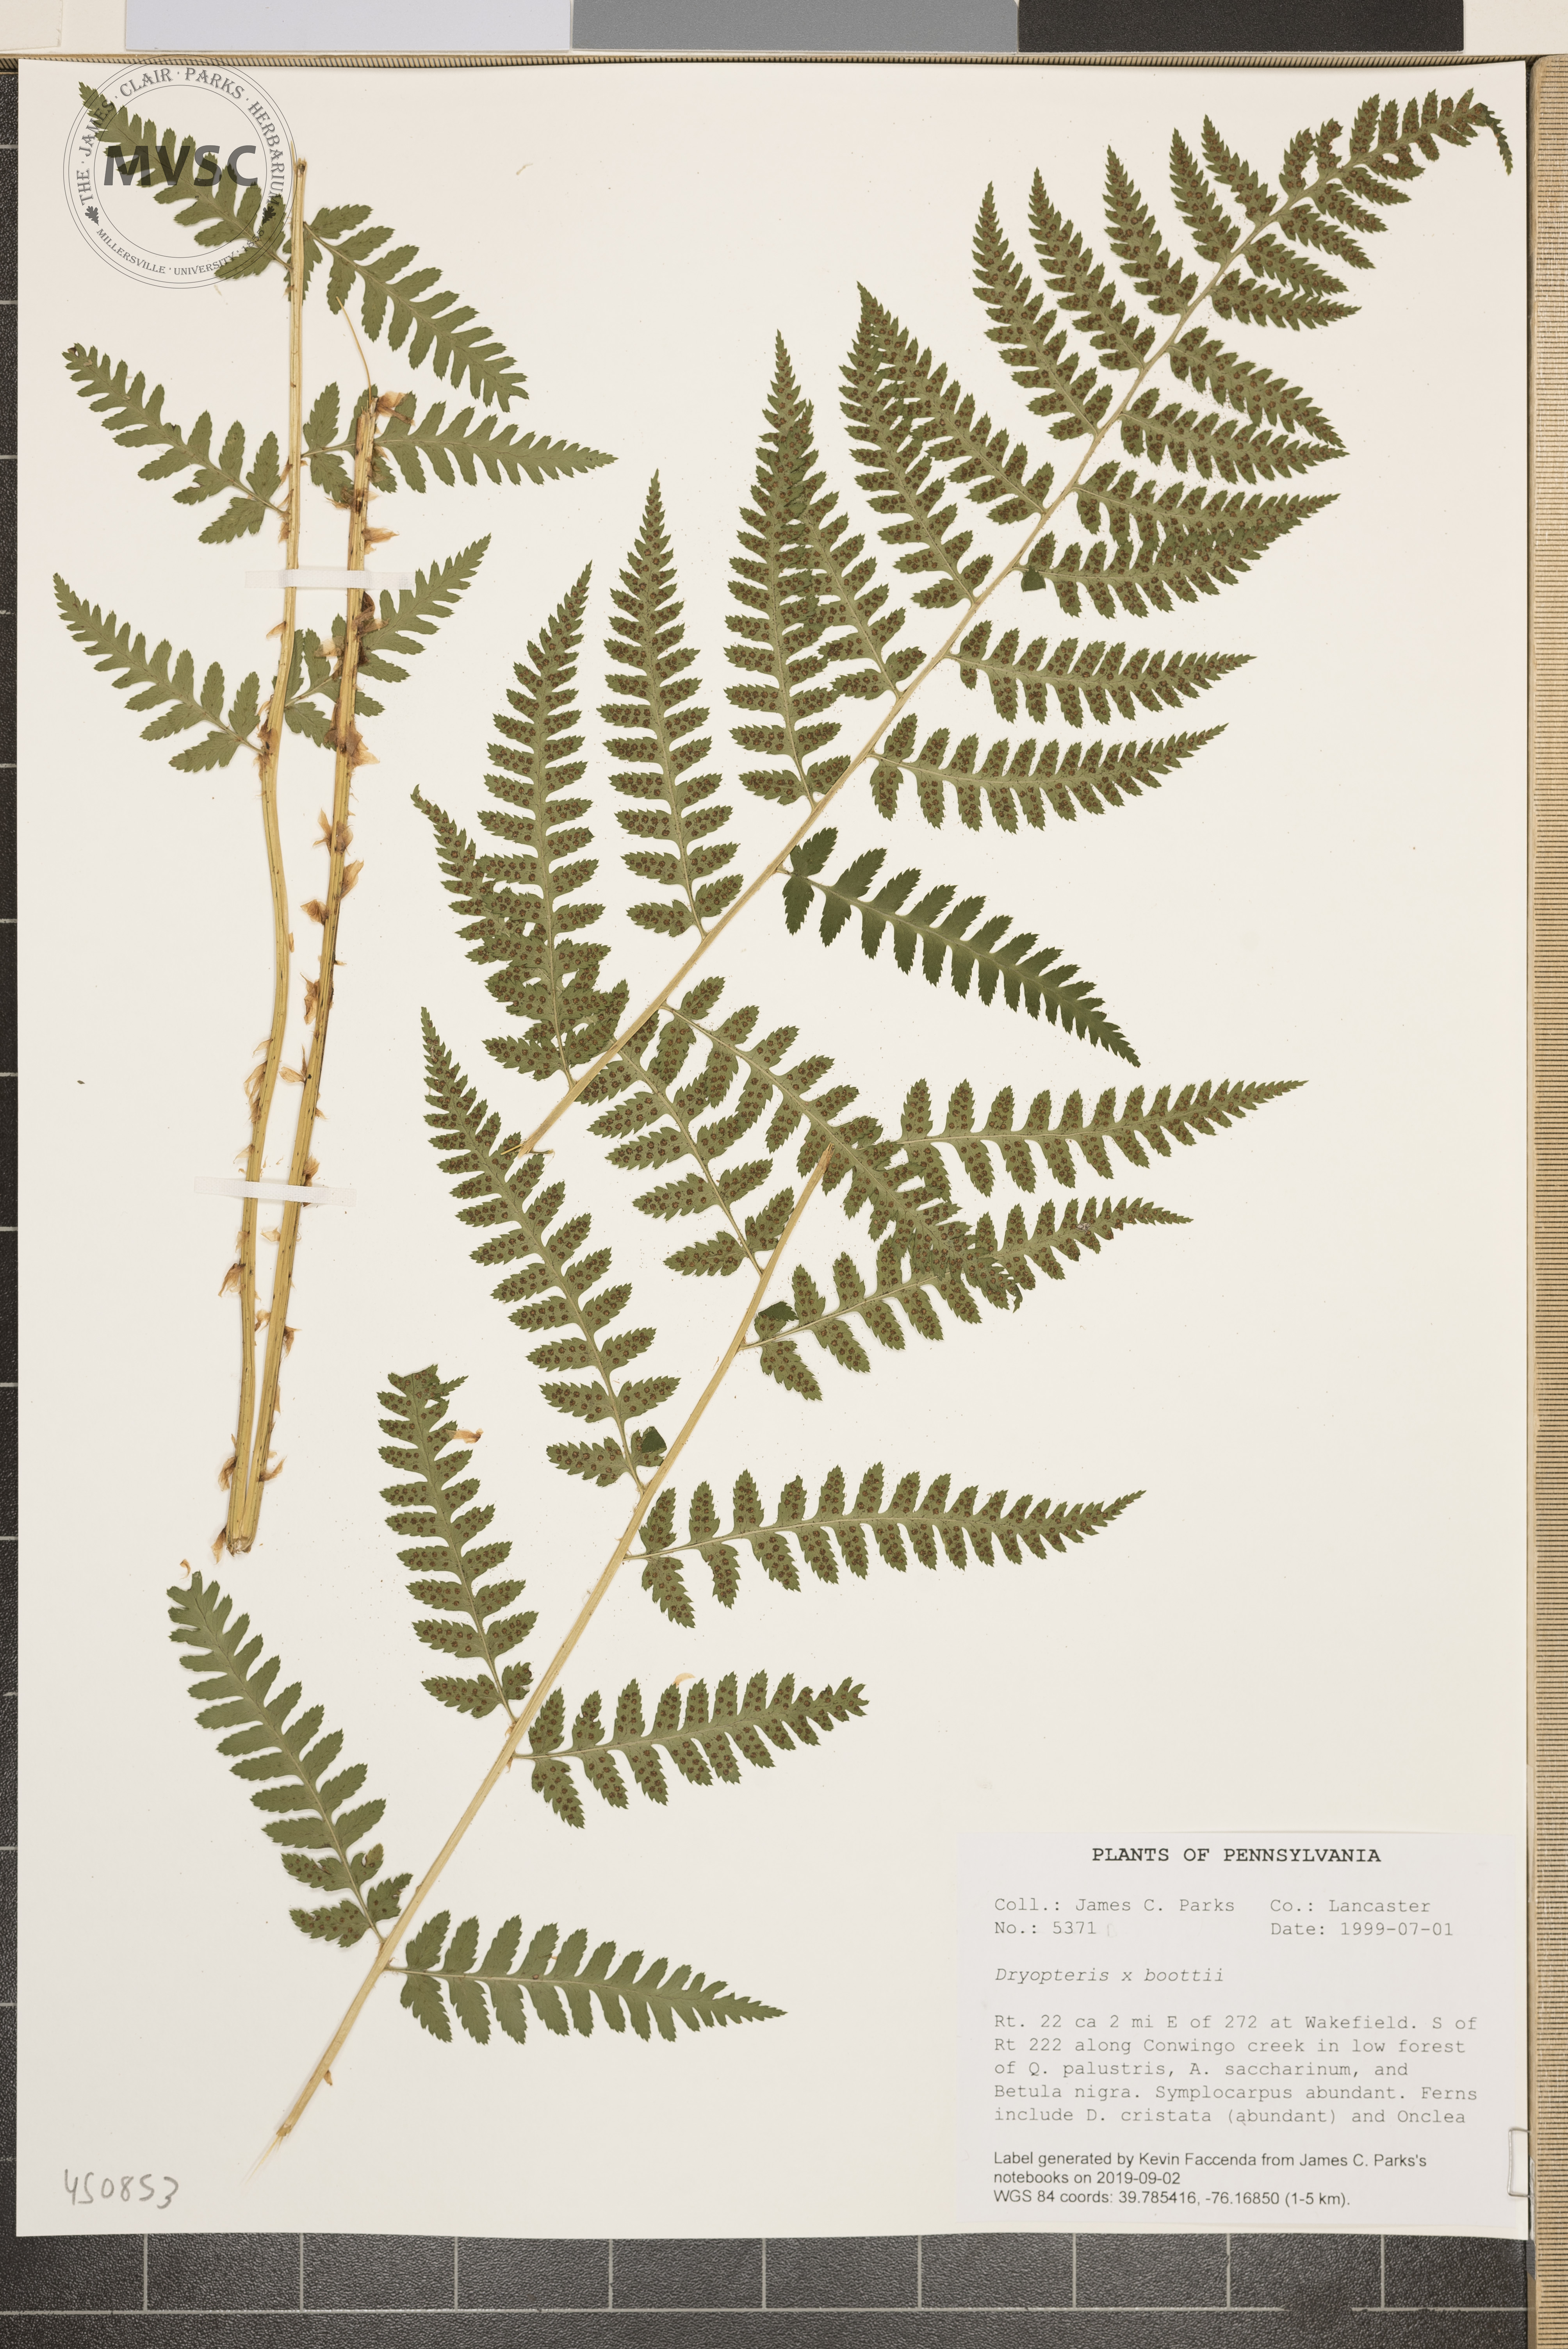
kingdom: Plantae
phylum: Tracheophyta
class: Polypodiopsida
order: Polypodiales
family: Dryopteridaceae
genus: Dryopteris
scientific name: Dryopteris boottii
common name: Boott's fern
